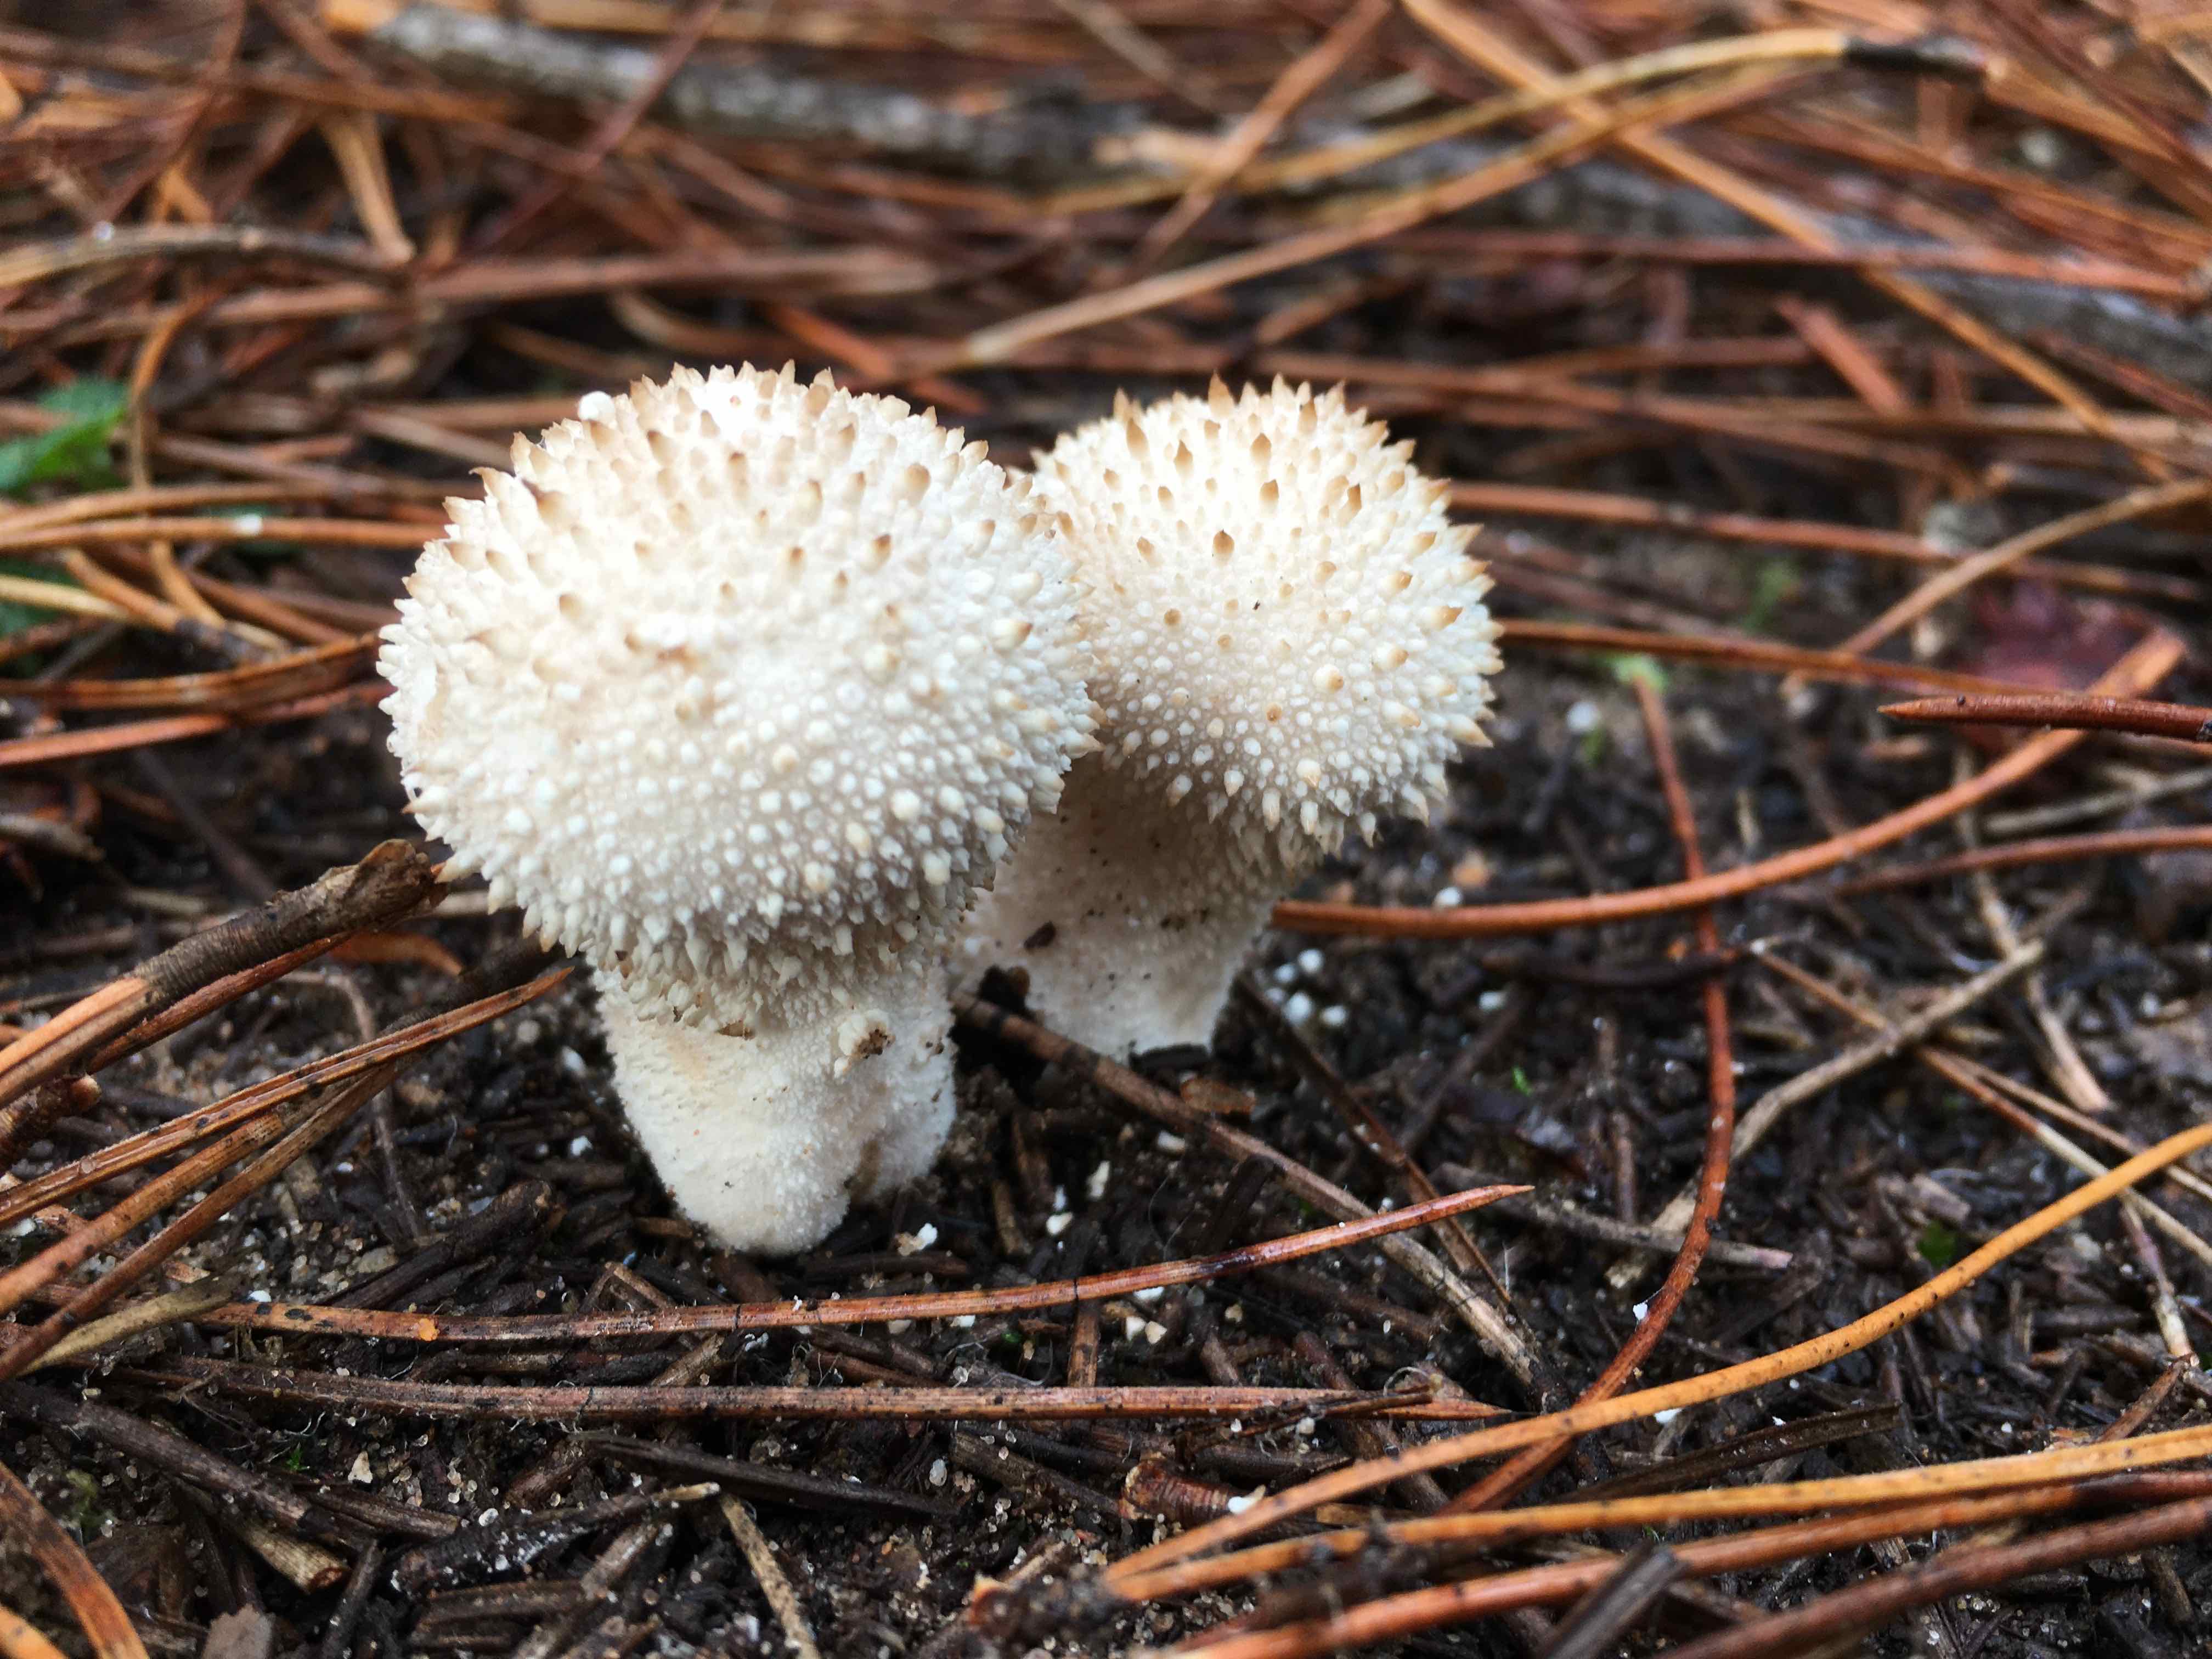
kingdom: Fungi
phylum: Basidiomycota
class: Agaricomycetes
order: Agaricales
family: Lycoperdaceae
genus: Lycoperdon
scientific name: Lycoperdon perlatum
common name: krystal-støvbold
